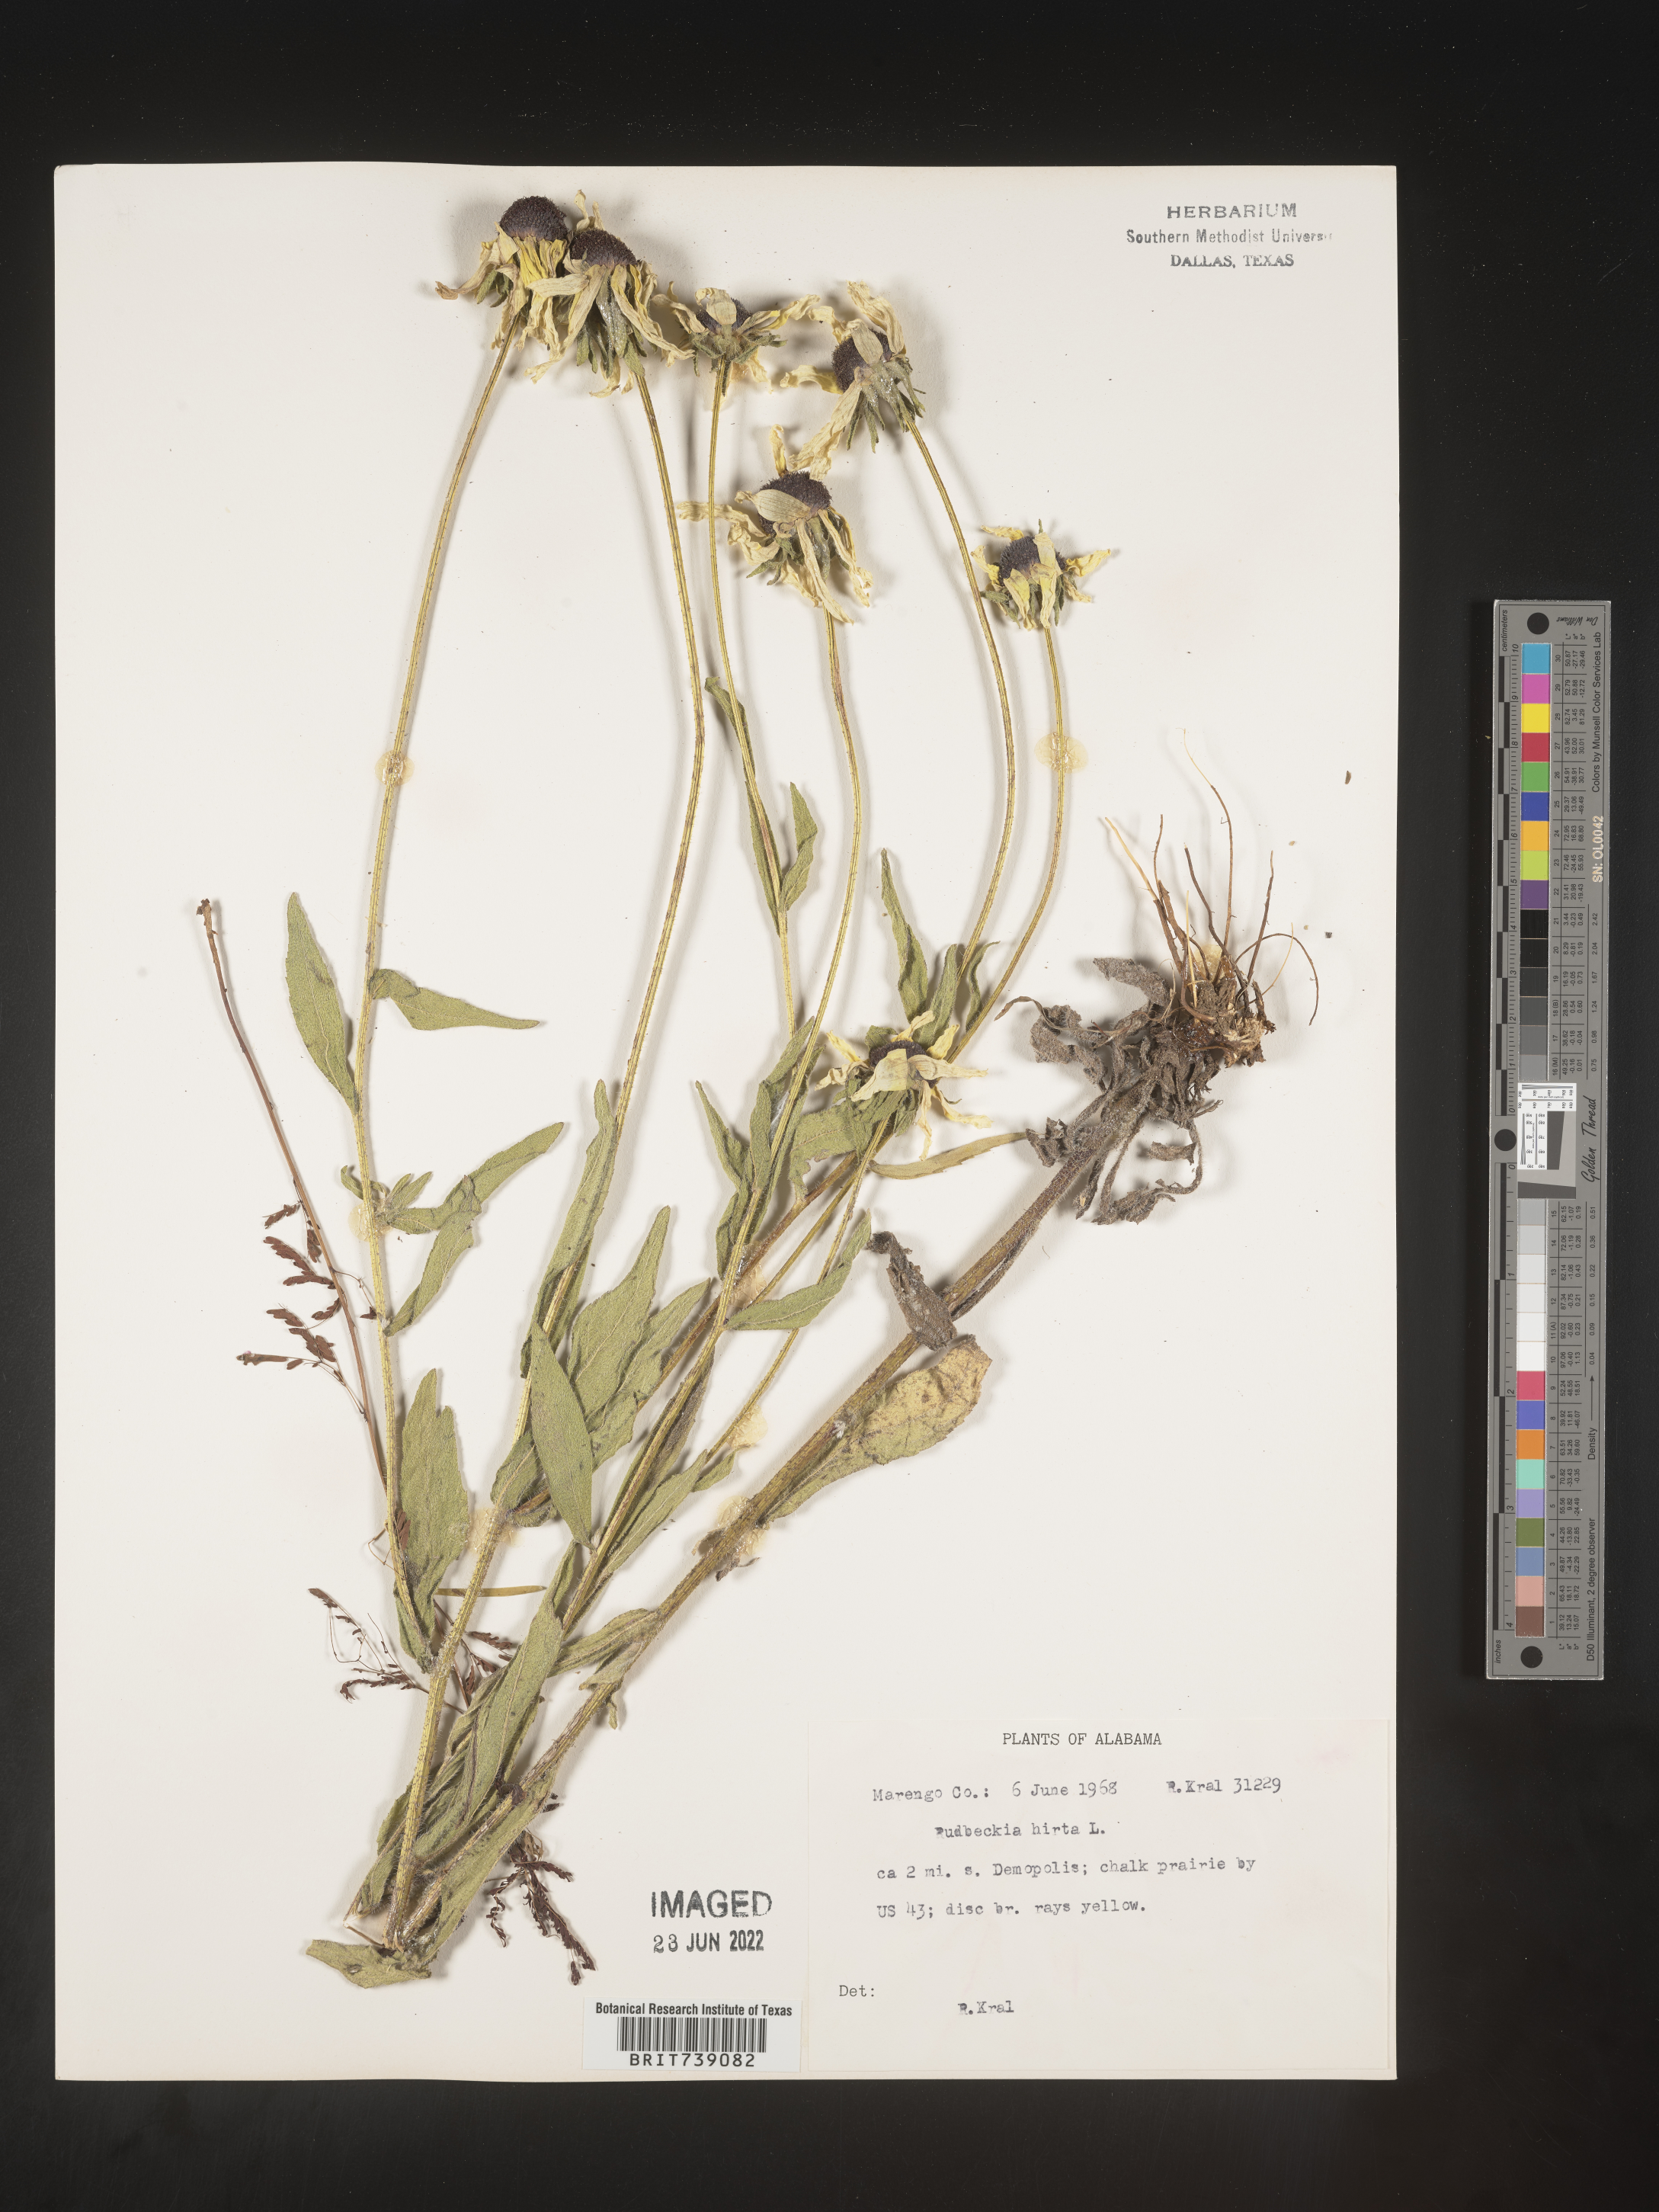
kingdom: Plantae
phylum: Tracheophyta
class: Magnoliopsida
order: Asterales
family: Asteraceae
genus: Rudbeckia
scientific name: Rudbeckia hirta
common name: Black-eyed-susan
